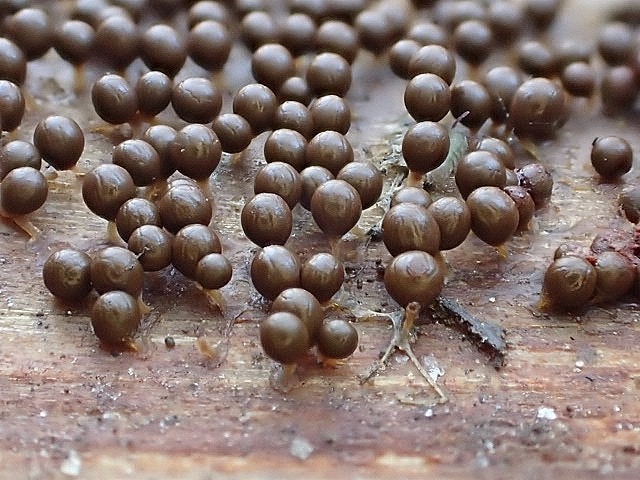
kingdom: Protozoa
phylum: Mycetozoa
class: Myxomycetes
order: Physarales
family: Didymiaceae
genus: Polyschismium
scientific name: Polyschismium trevelyanii
